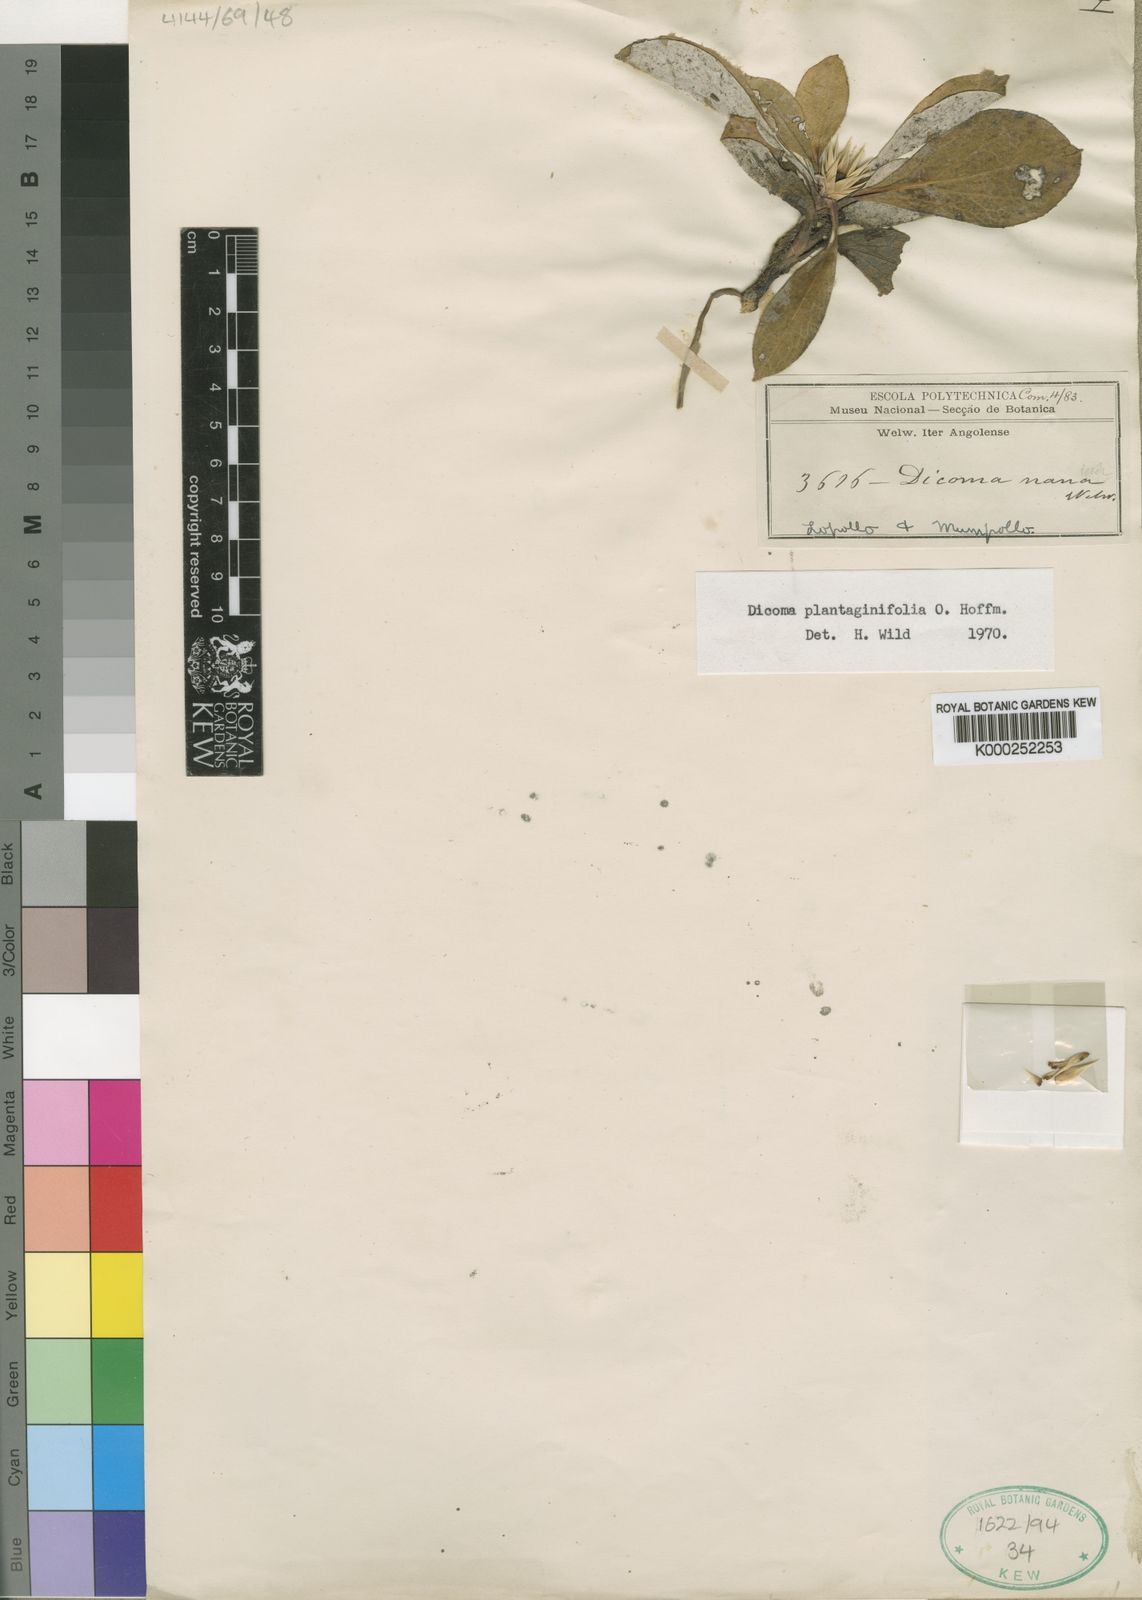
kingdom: Plantae
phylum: Tracheophyta
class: Magnoliopsida
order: Asterales
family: Asteraceae
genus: Macledium
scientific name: Macledium plantaginifolium
